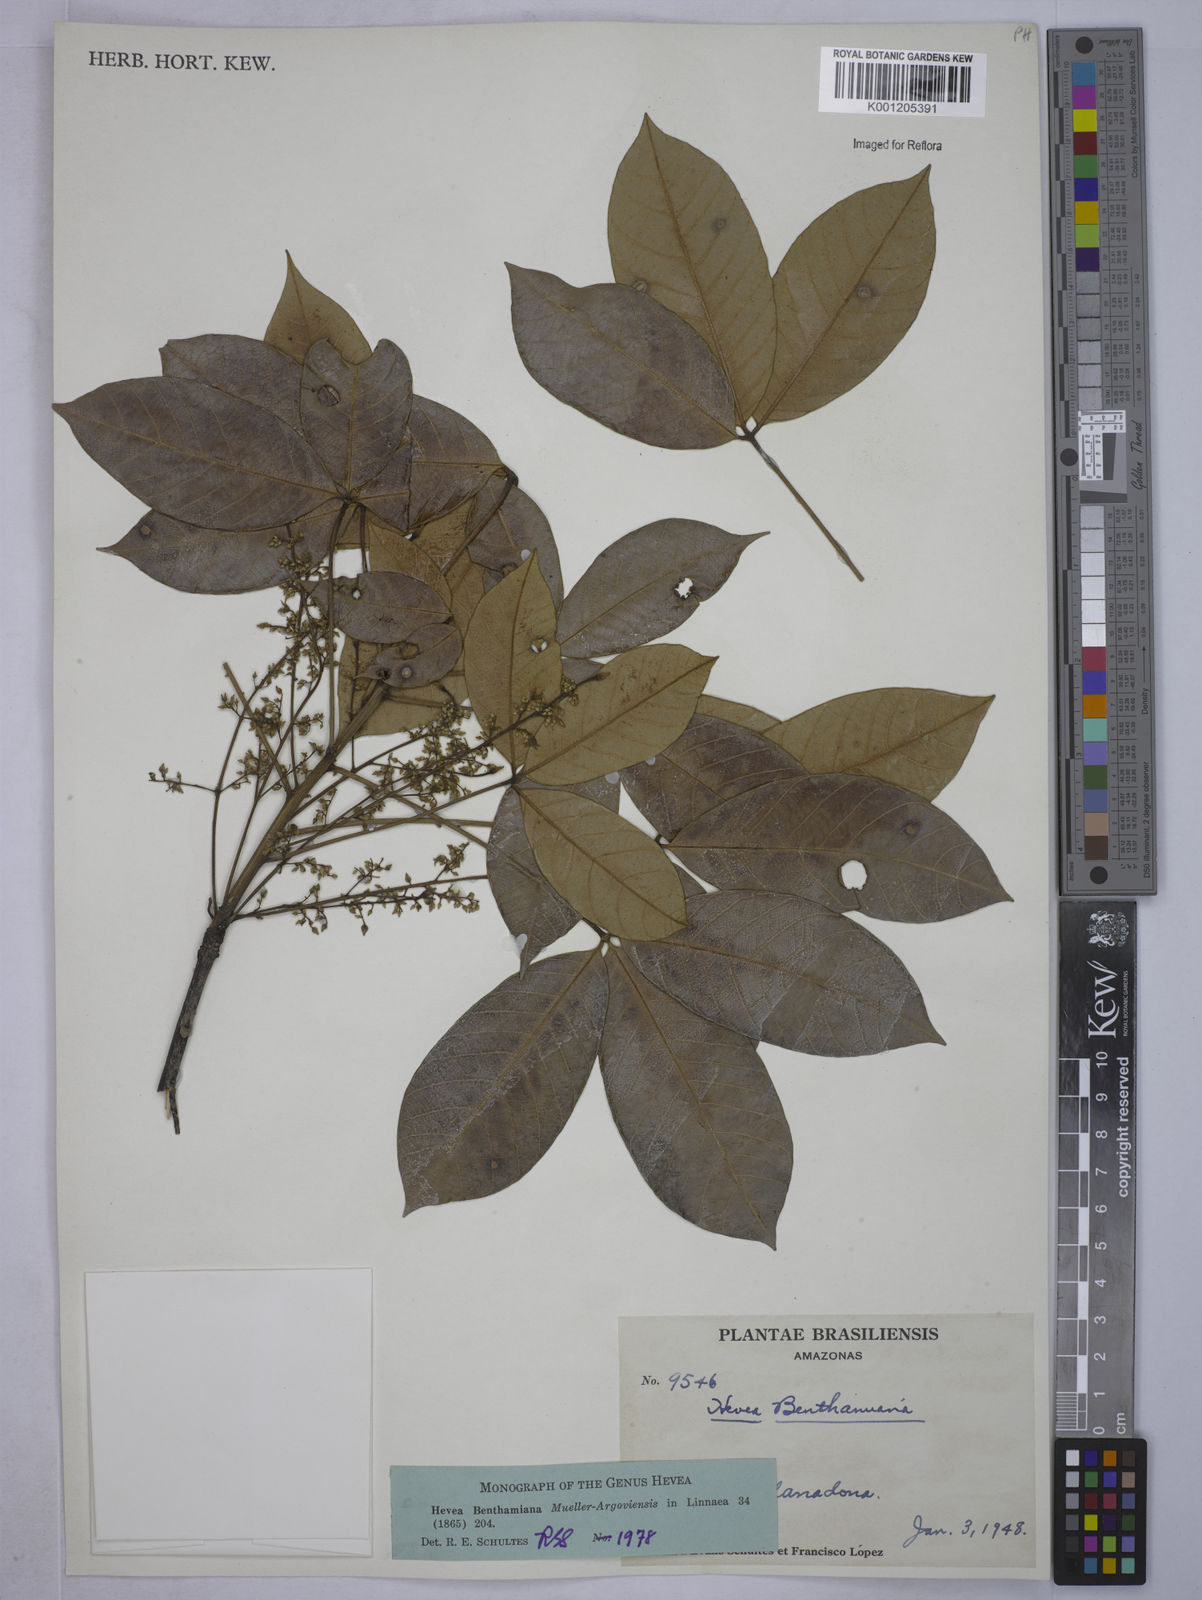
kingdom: Plantae
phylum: Tracheophyta
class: Magnoliopsida
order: Malpighiales
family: Euphorbiaceae
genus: Hevea
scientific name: Hevea
